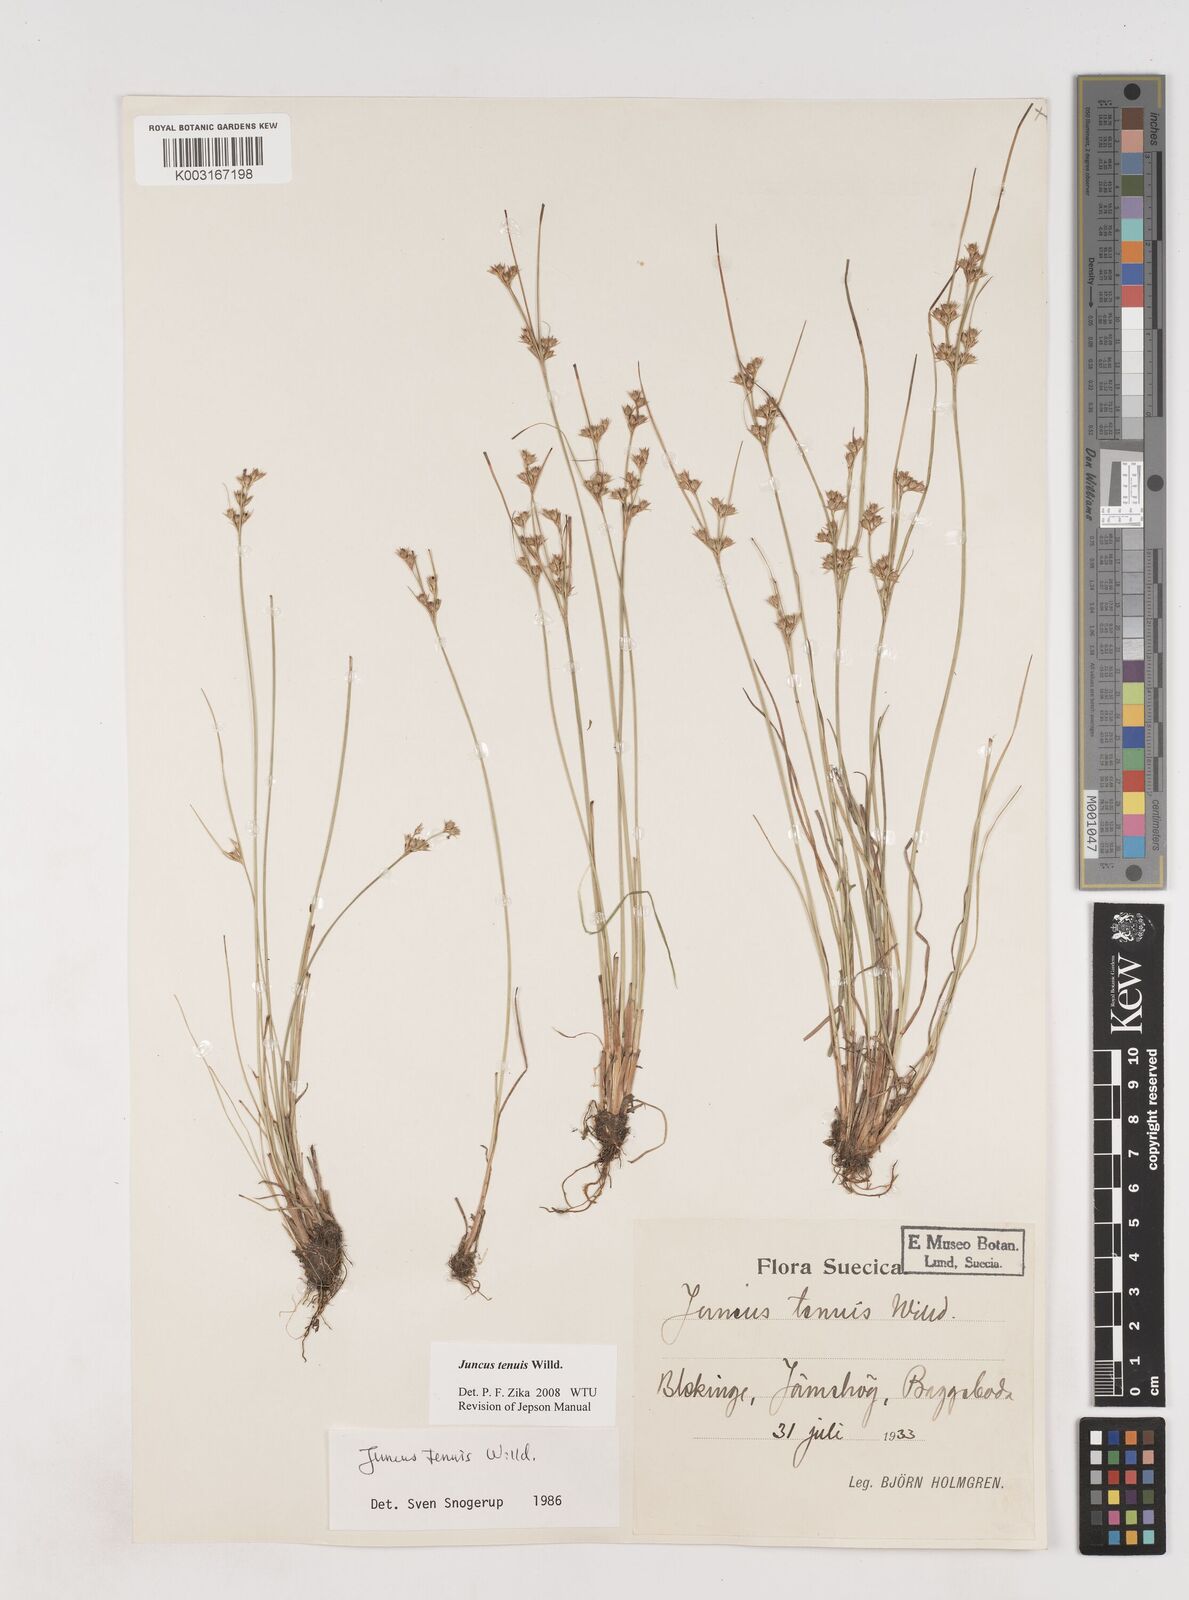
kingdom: Plantae
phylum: Tracheophyta
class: Liliopsida
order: Poales
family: Juncaceae
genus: Juncus
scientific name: Juncus tenuis
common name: Slender rush
